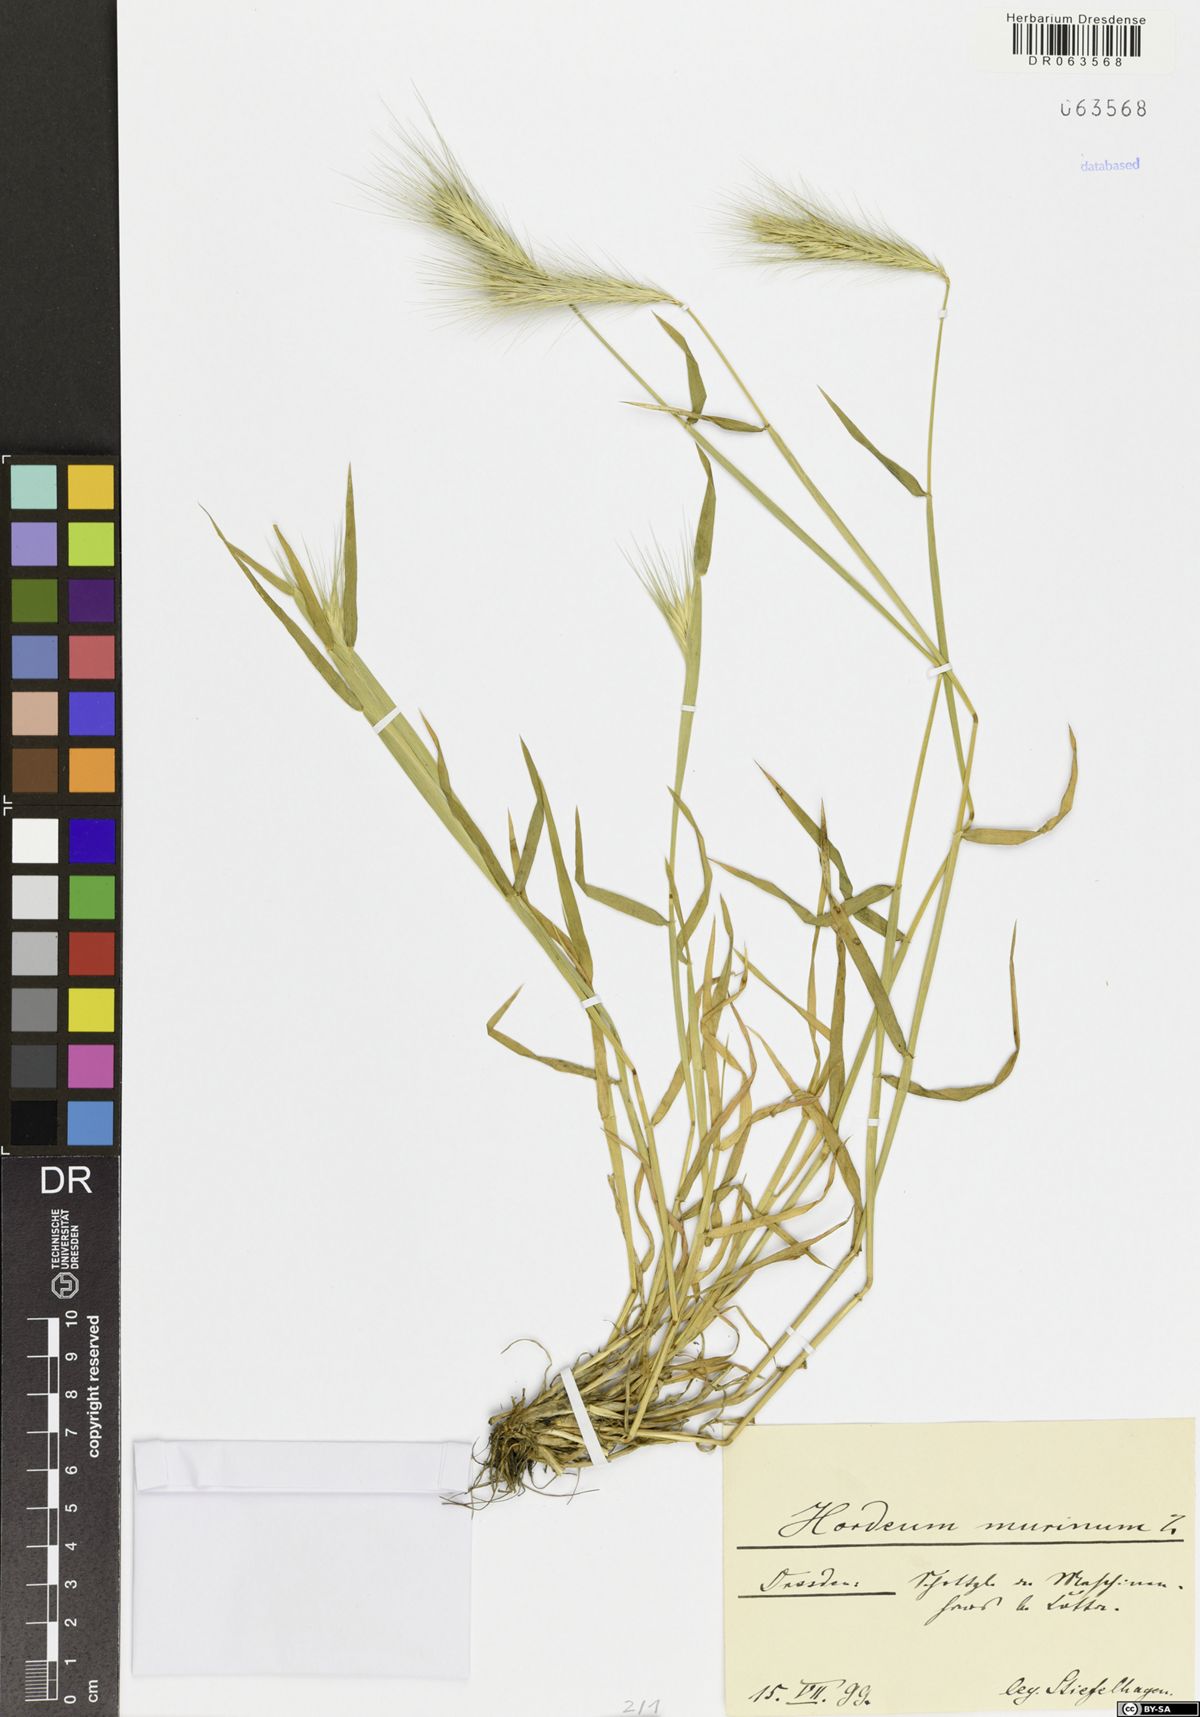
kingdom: Plantae
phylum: Tracheophyta
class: Liliopsida
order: Poales
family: Poaceae
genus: Hordeum
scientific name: Hordeum murinum
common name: Wall barley
